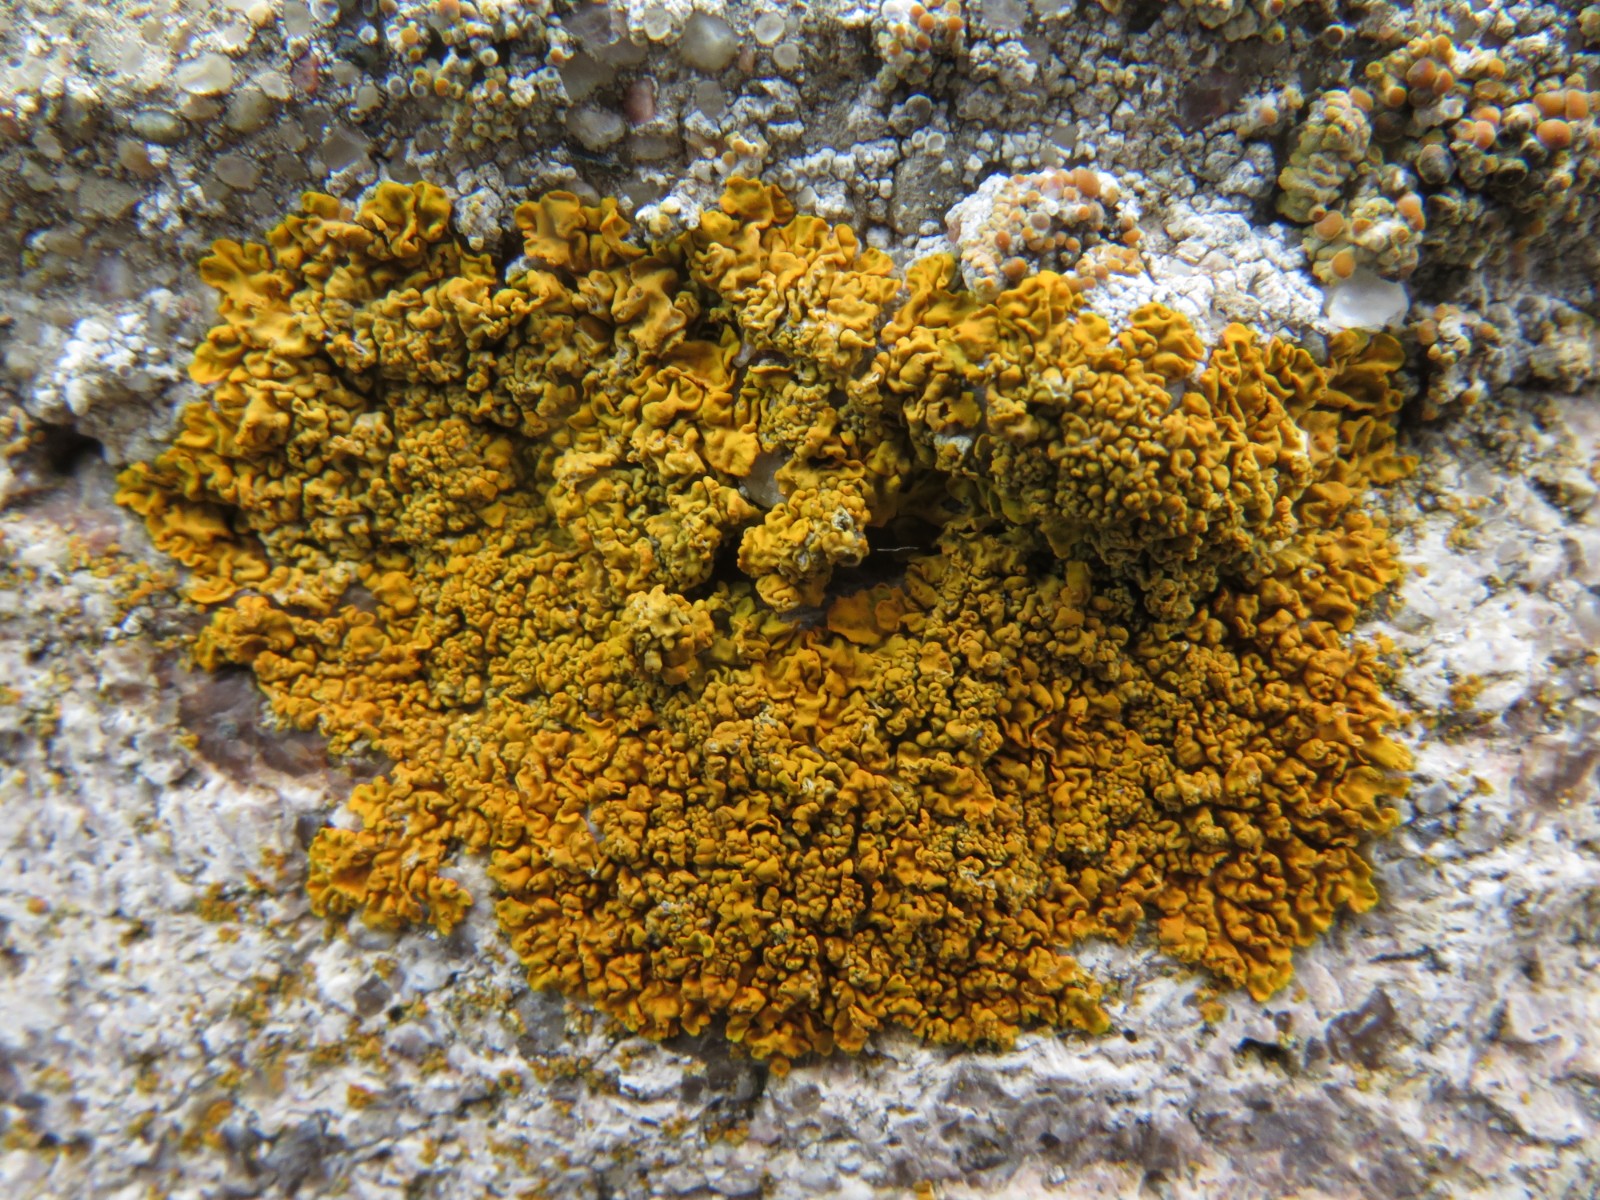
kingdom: Fungi
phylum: Ascomycota
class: Lecanoromycetes
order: Teloschistales
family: Teloschistaceae
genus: Xanthoria
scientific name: Xanthoria calcicola
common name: vortet væggelav
